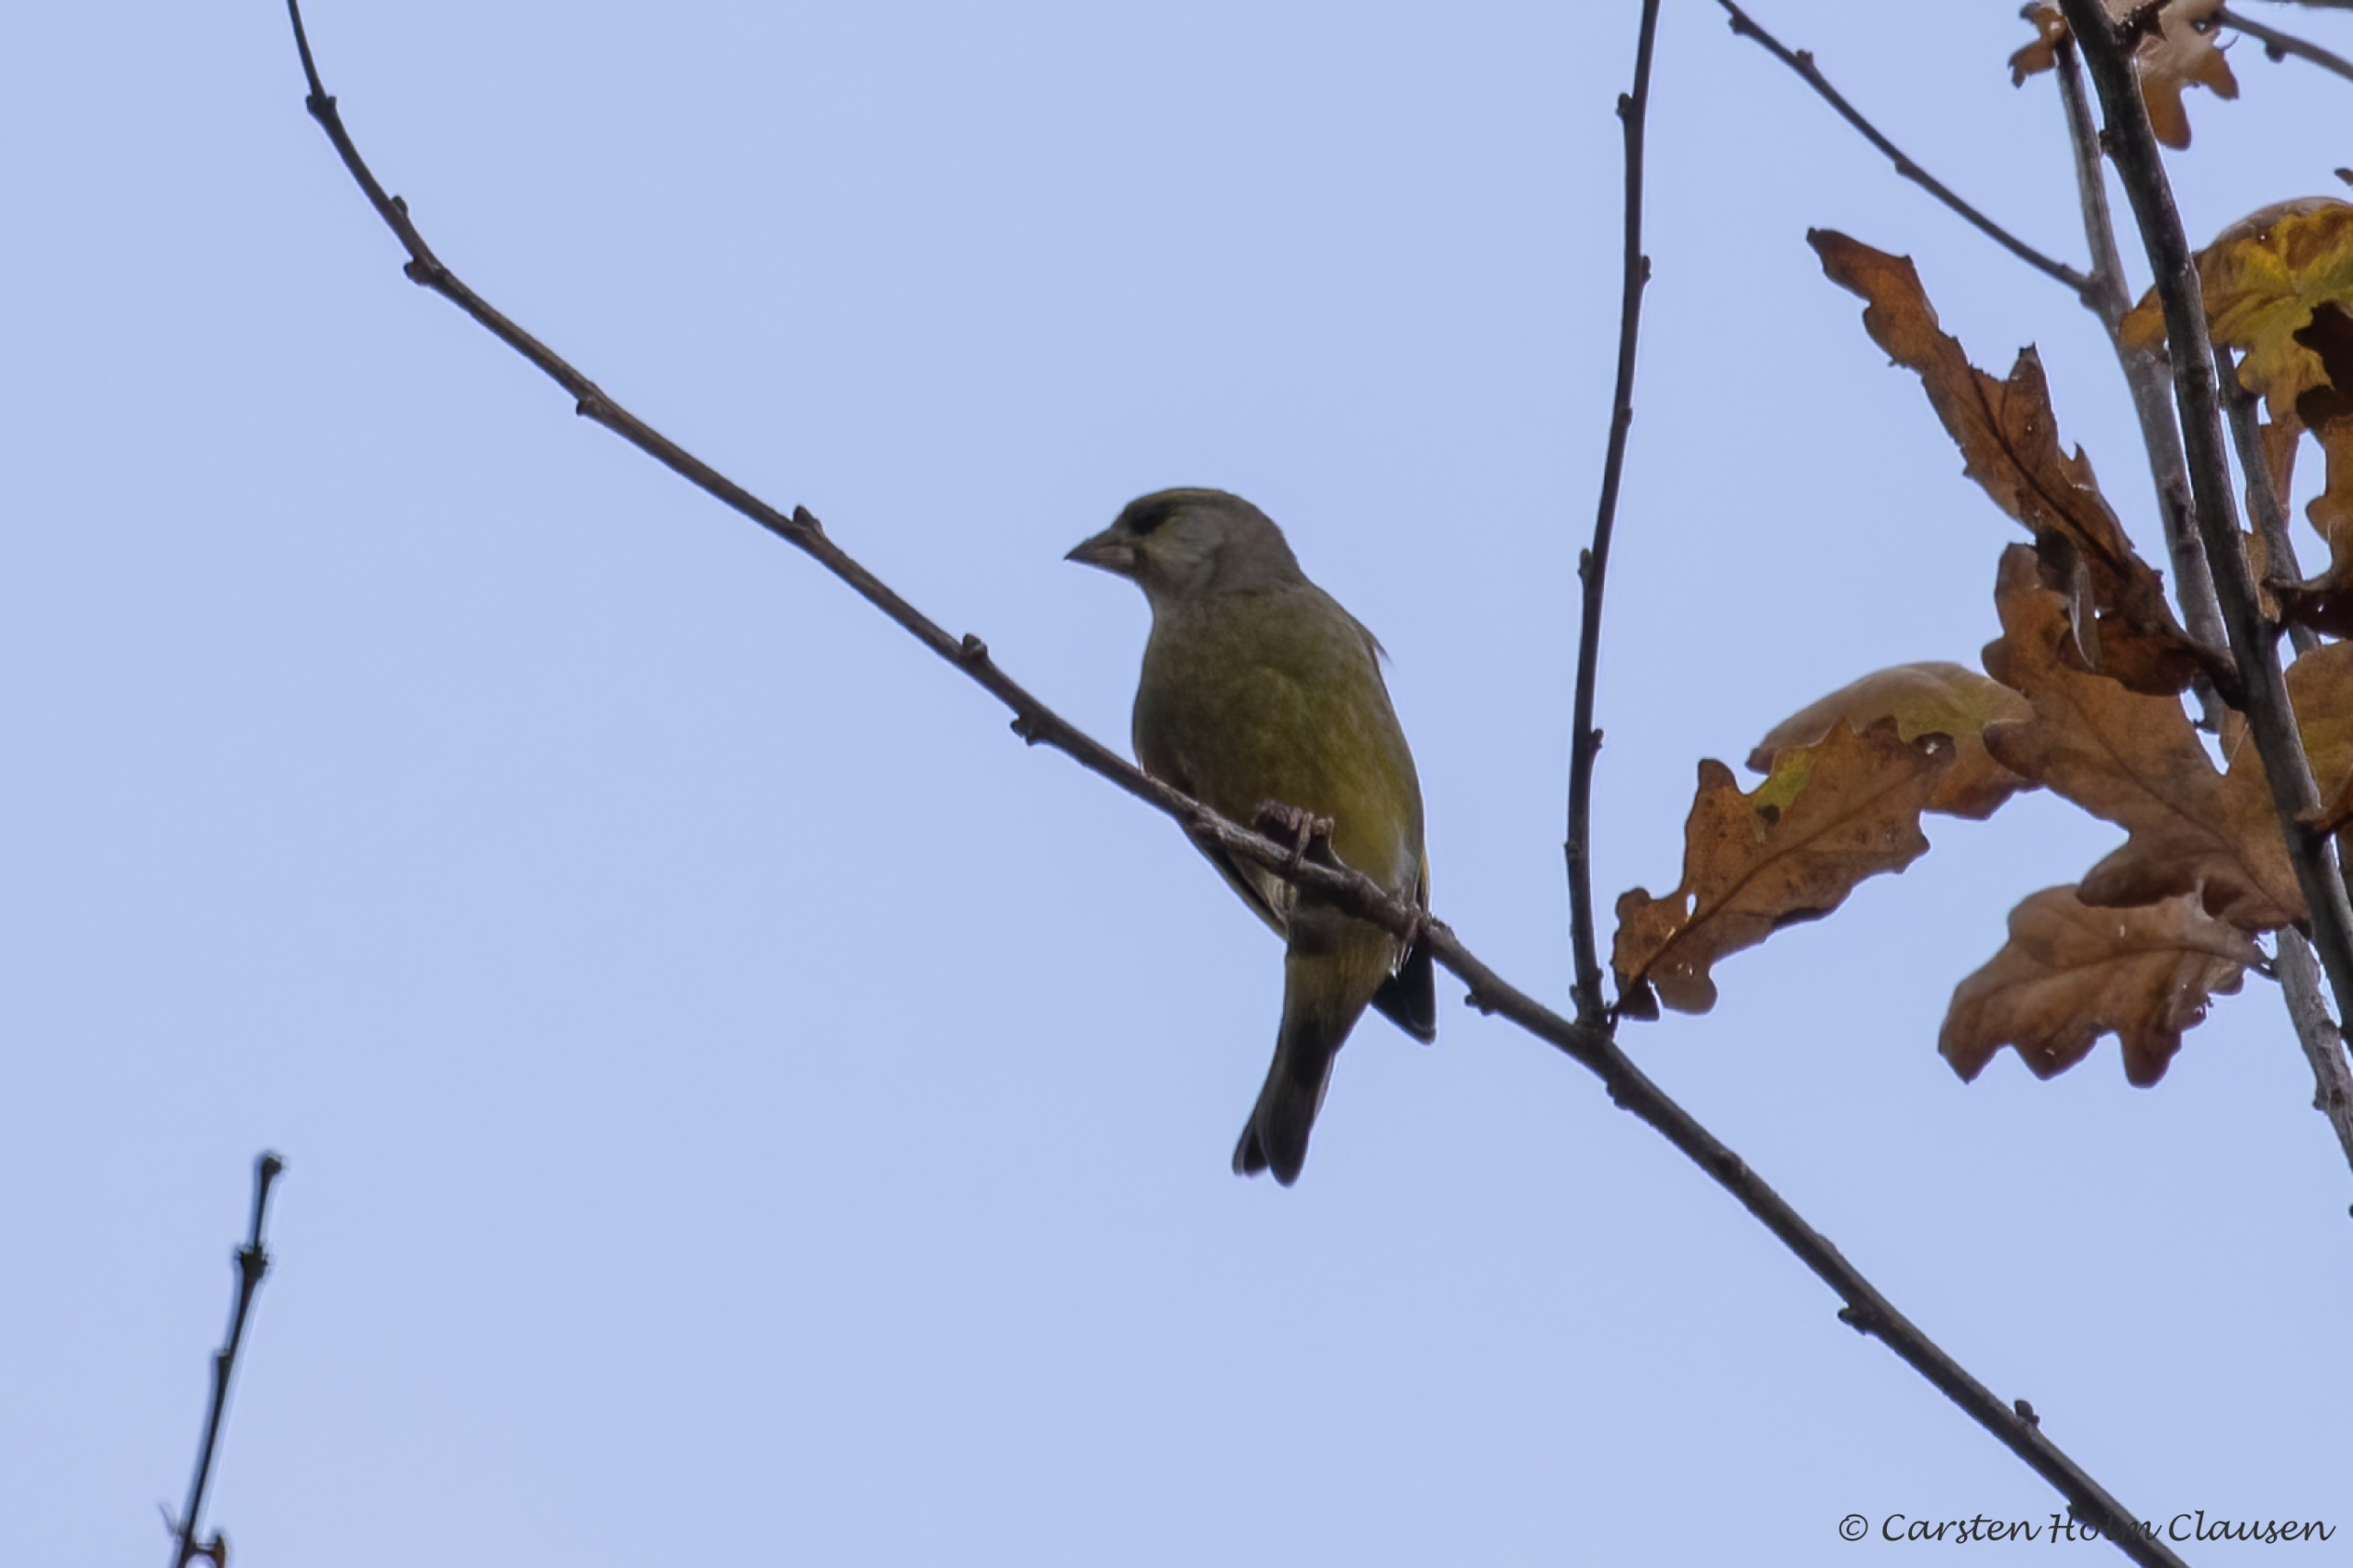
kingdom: Plantae
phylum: Tracheophyta
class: Liliopsida
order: Poales
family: Poaceae
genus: Chloris
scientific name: Chloris chloris
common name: Grønirisk
